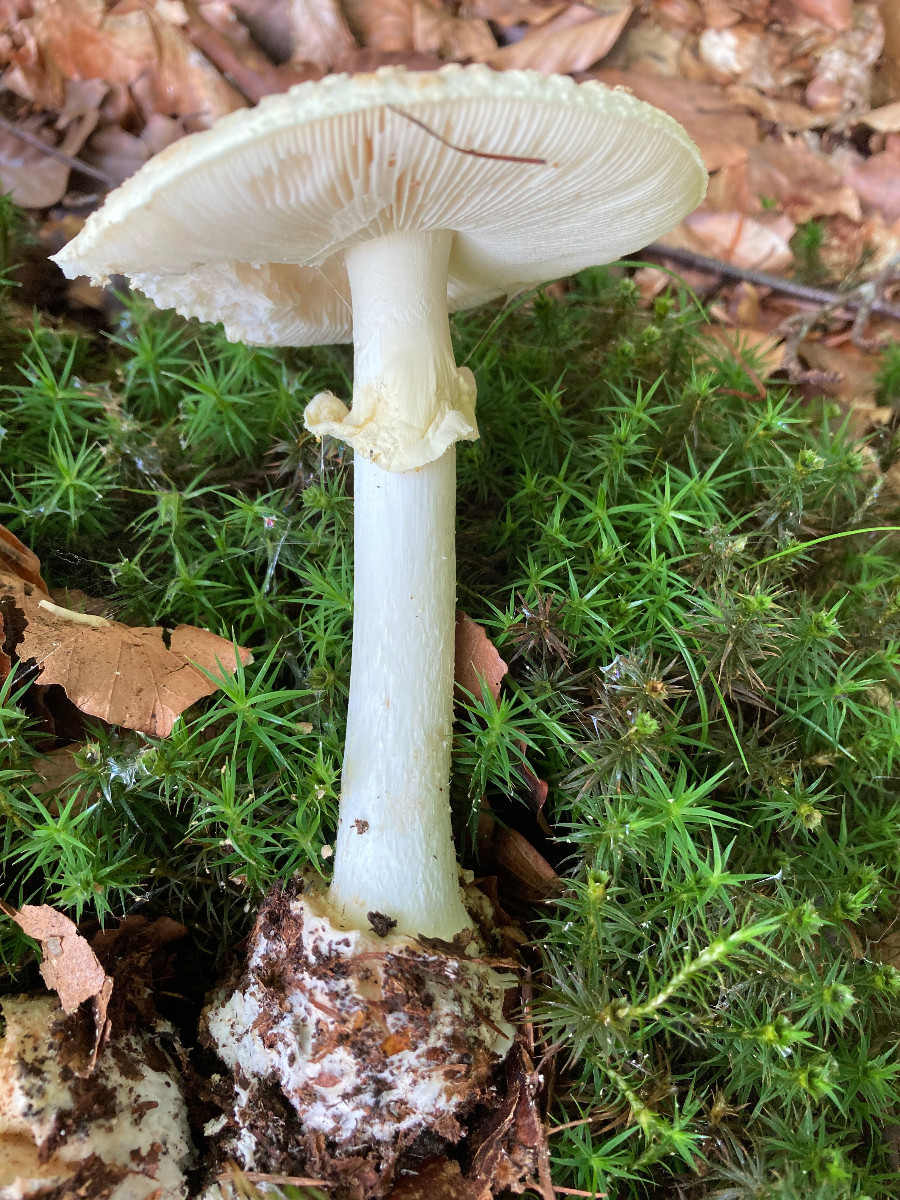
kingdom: Fungi
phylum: Basidiomycota
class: Agaricomycetes
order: Agaricales
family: Amanitaceae
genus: Amanita
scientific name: Amanita citrina
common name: kugleknoldet fluesvamp
